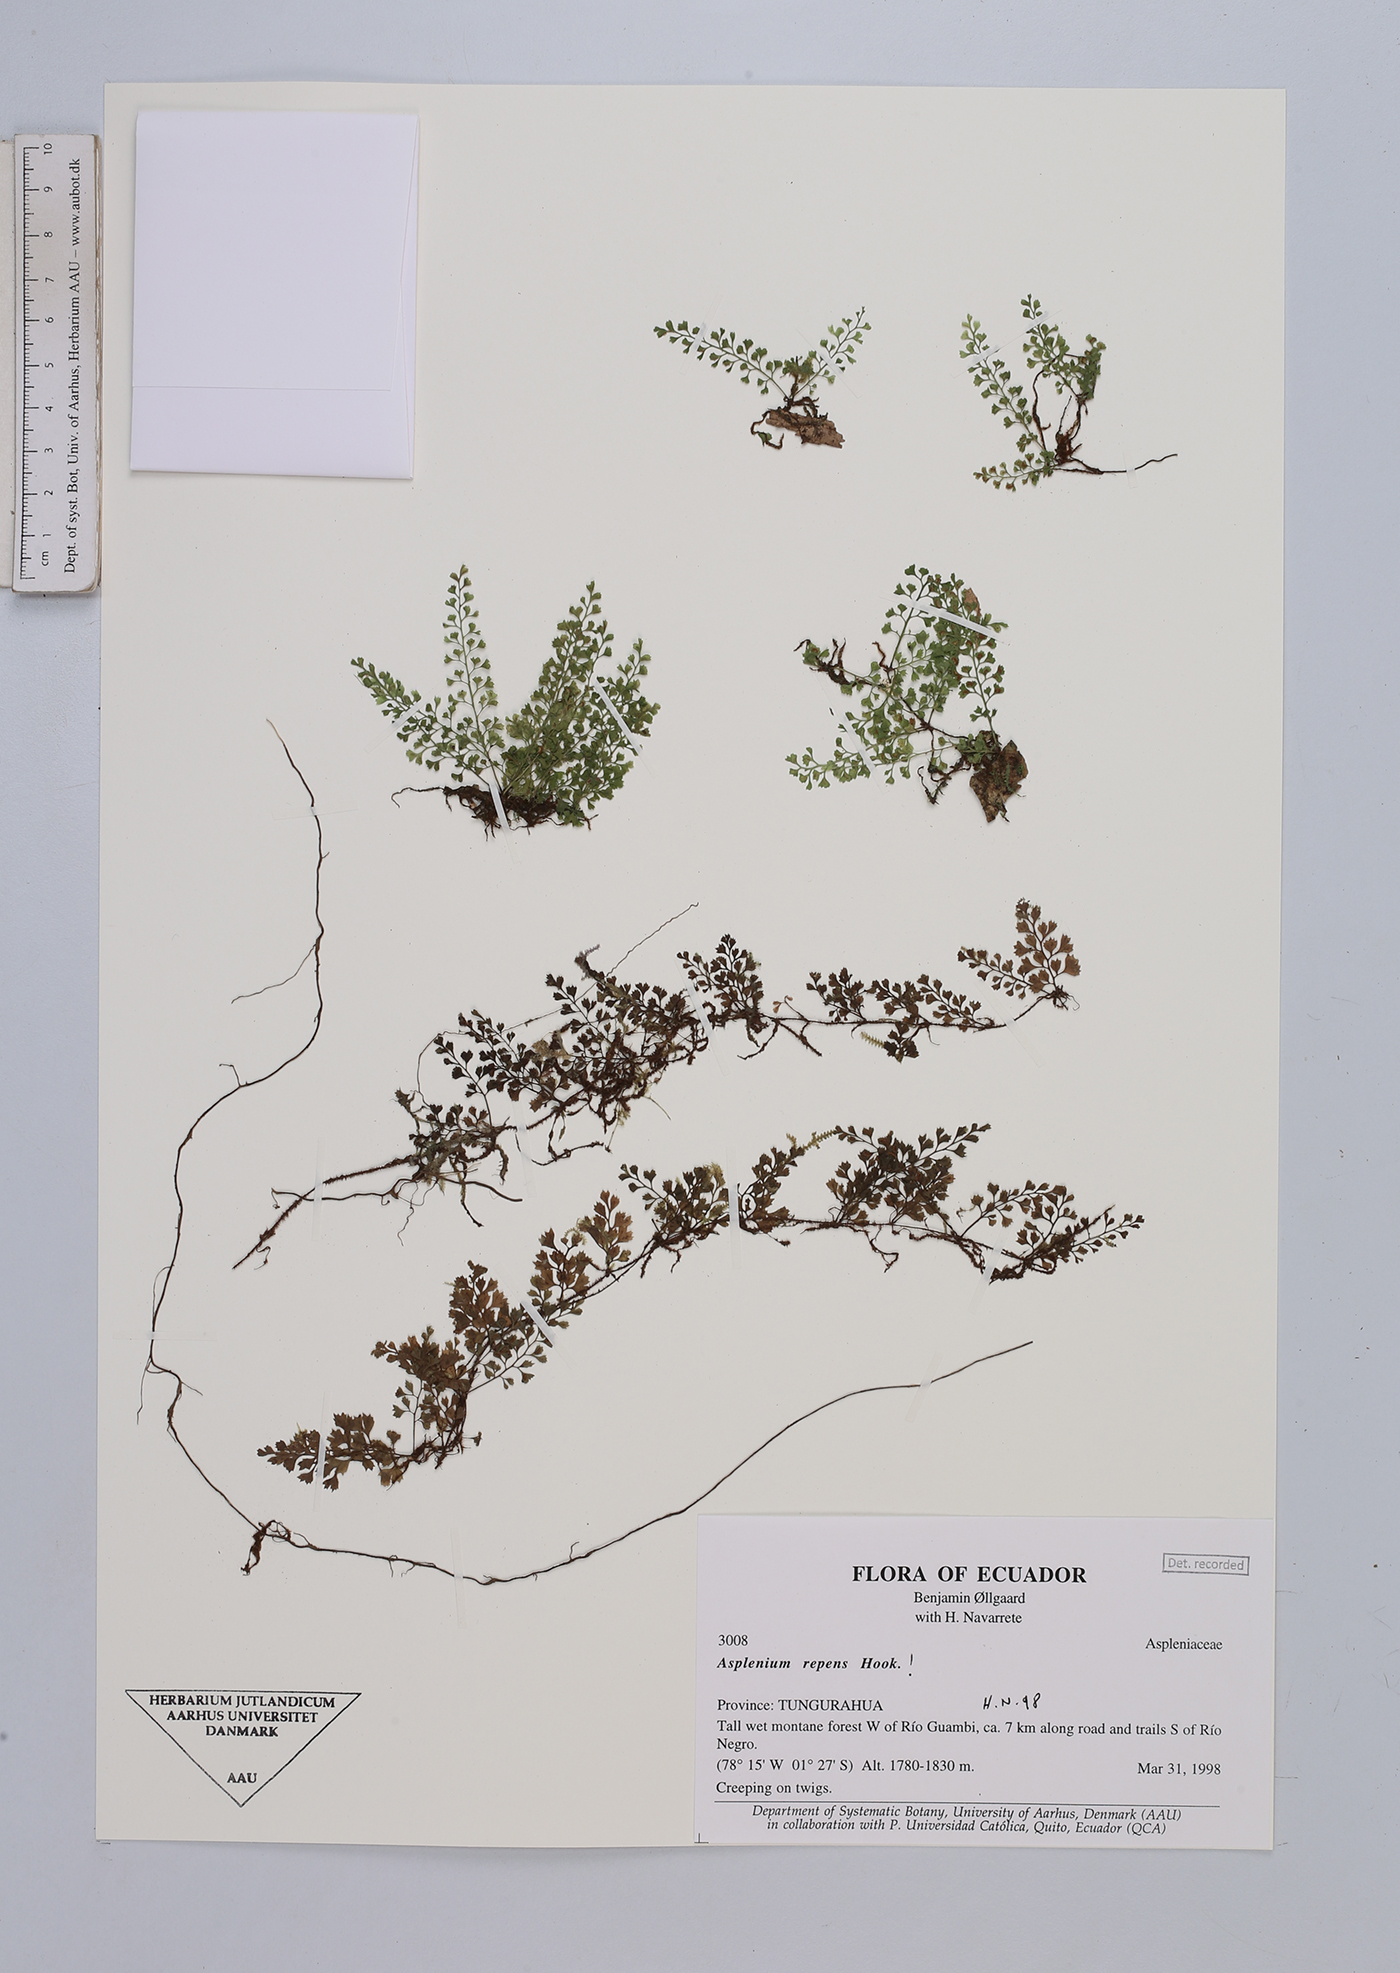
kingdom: Plantae
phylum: Tracheophyta
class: Polypodiopsida
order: Polypodiales
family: Aspleniaceae
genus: Asplenium
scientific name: Asplenium repens
